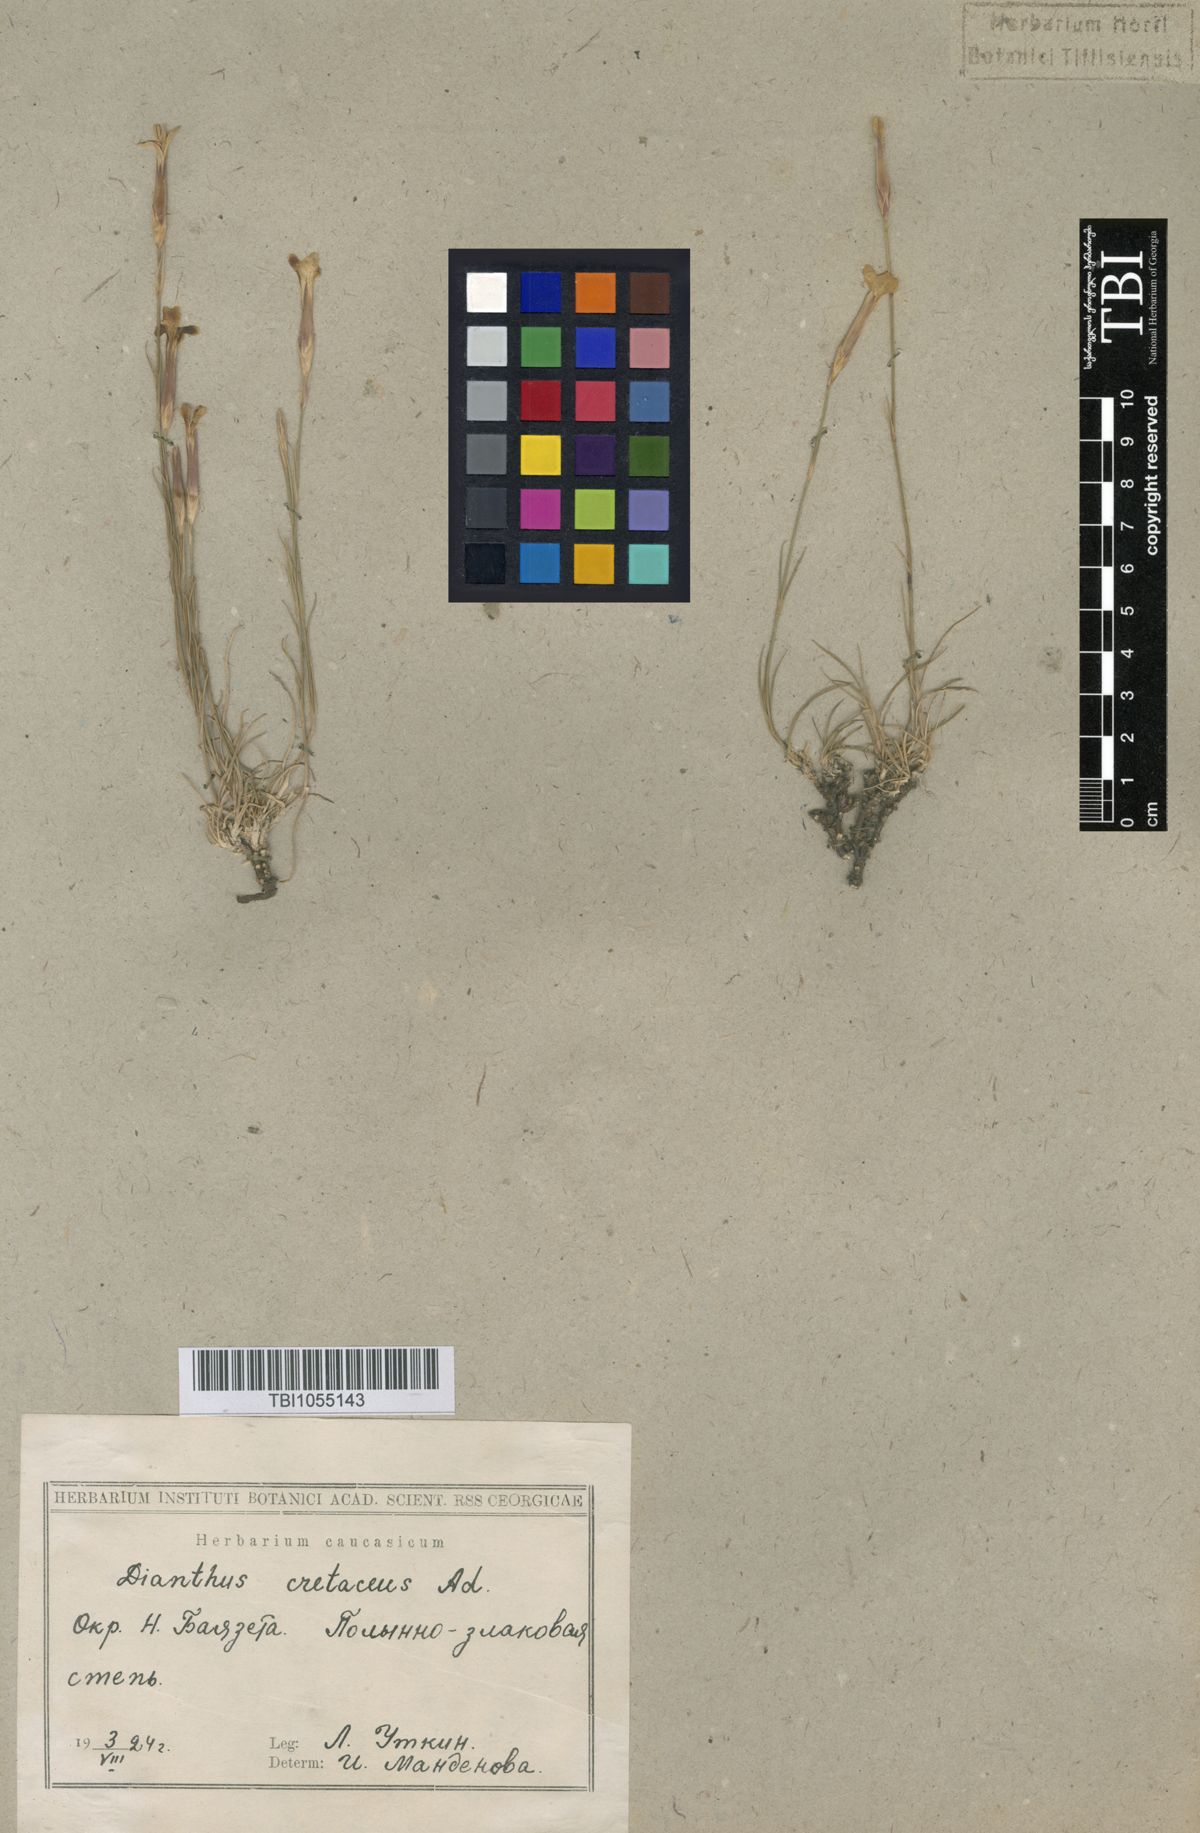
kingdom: Plantae
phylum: Tracheophyta
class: Magnoliopsida
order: Caryophyllales
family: Caryophyllaceae
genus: Dianthus
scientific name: Dianthus cretaceus
